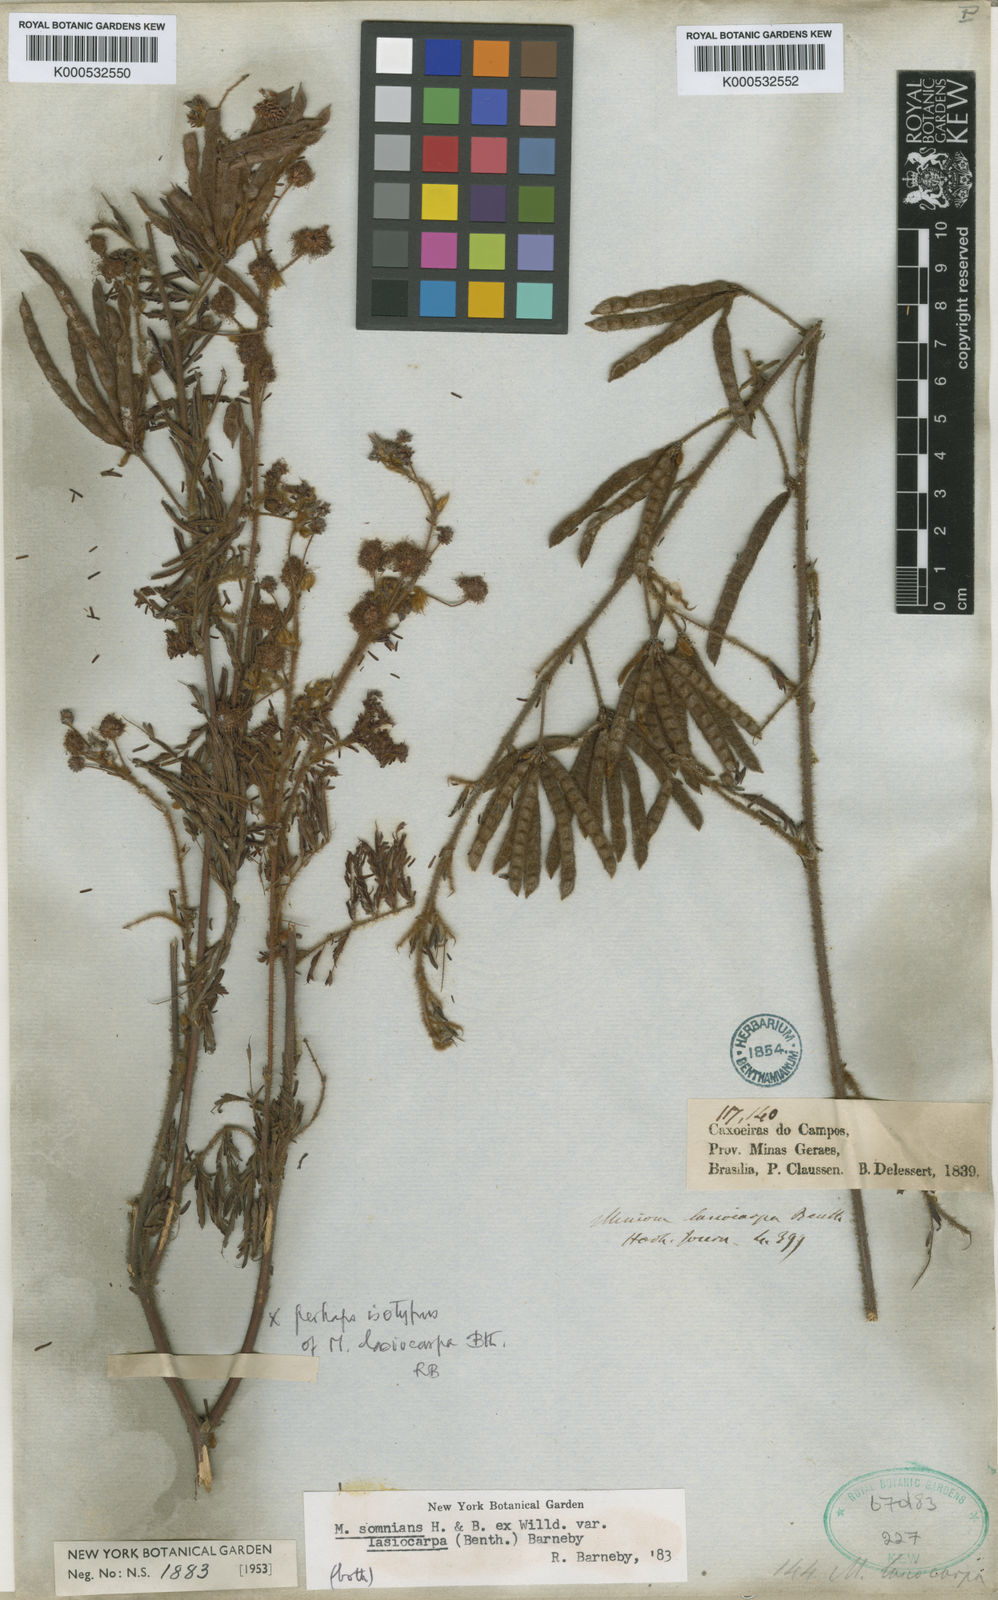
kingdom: Plantae
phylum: Tracheophyta
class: Magnoliopsida
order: Fabales
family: Fabaceae
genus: Mimosa
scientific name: Mimosa somnians
